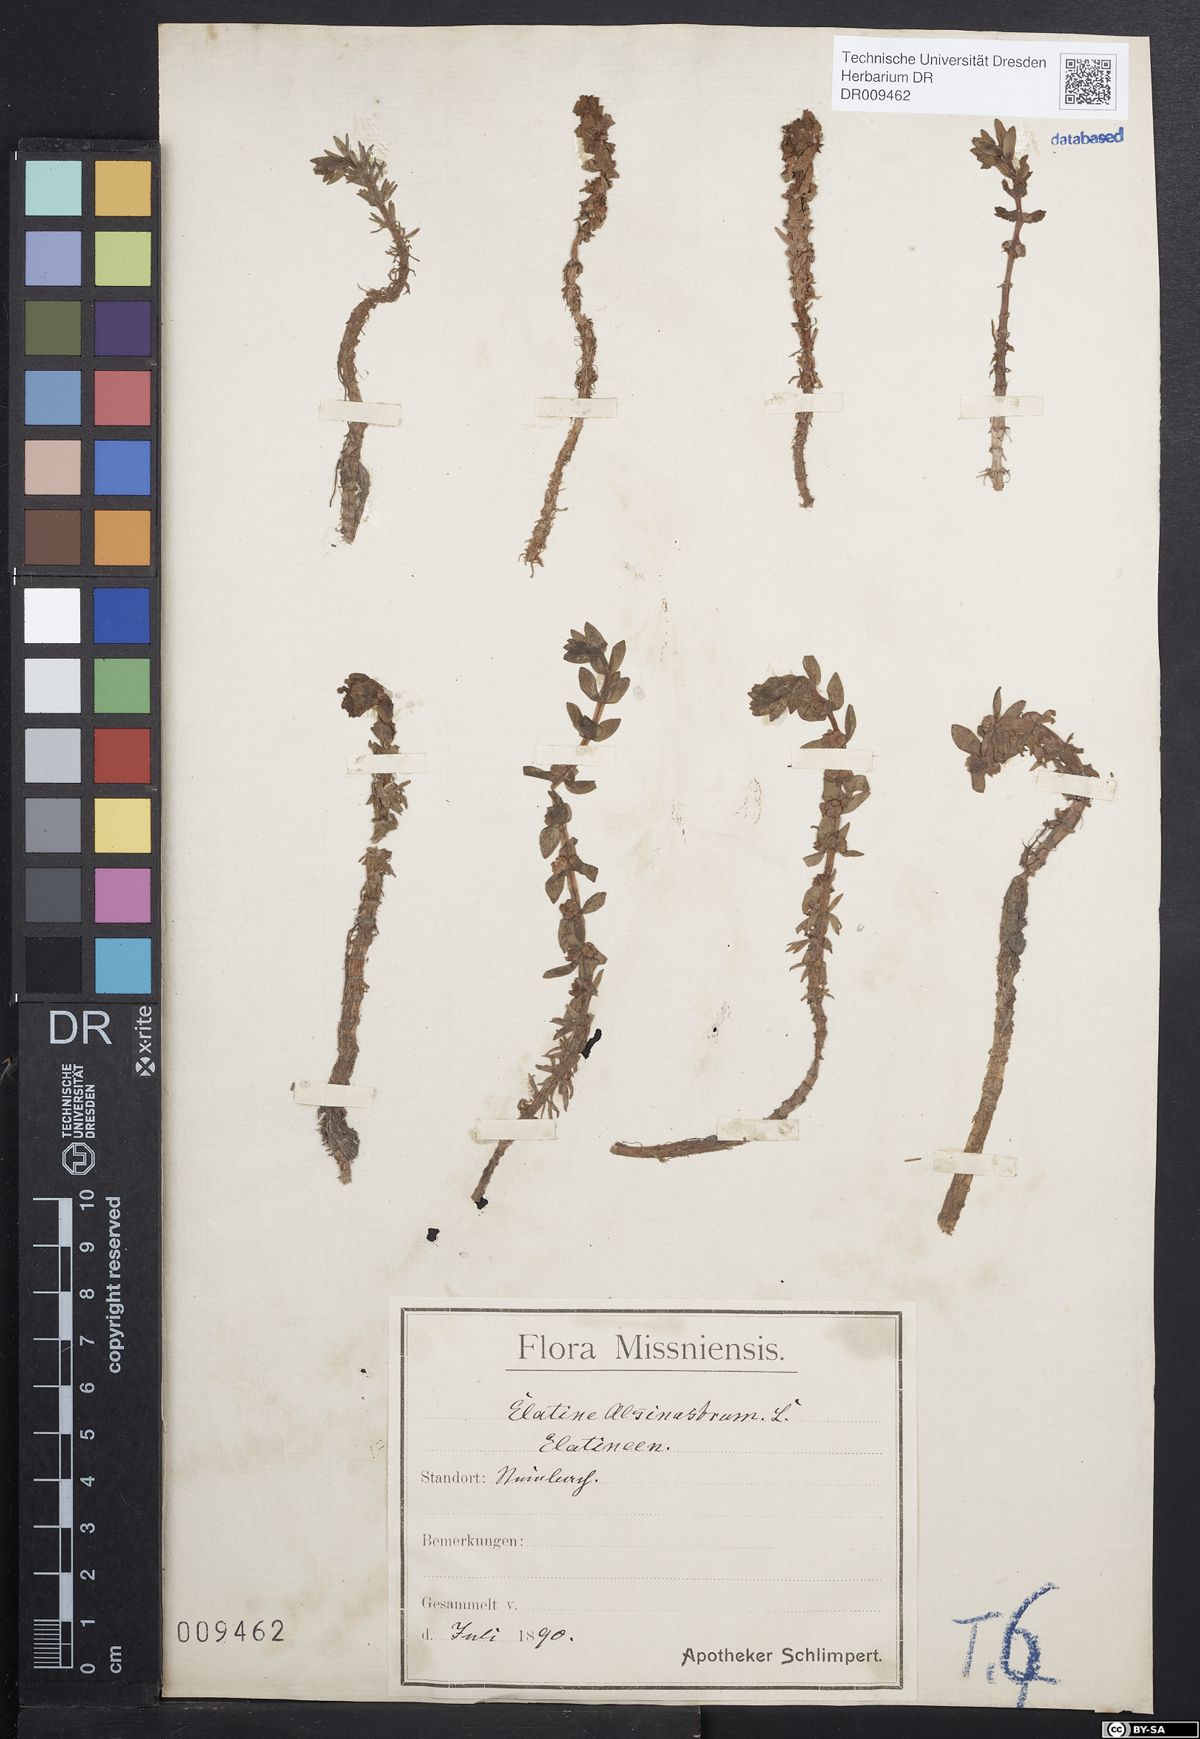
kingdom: Plantae
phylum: Tracheophyta
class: Magnoliopsida
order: Malpighiales
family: Elatinaceae
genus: Elatine
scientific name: Elatine alsinastrum
